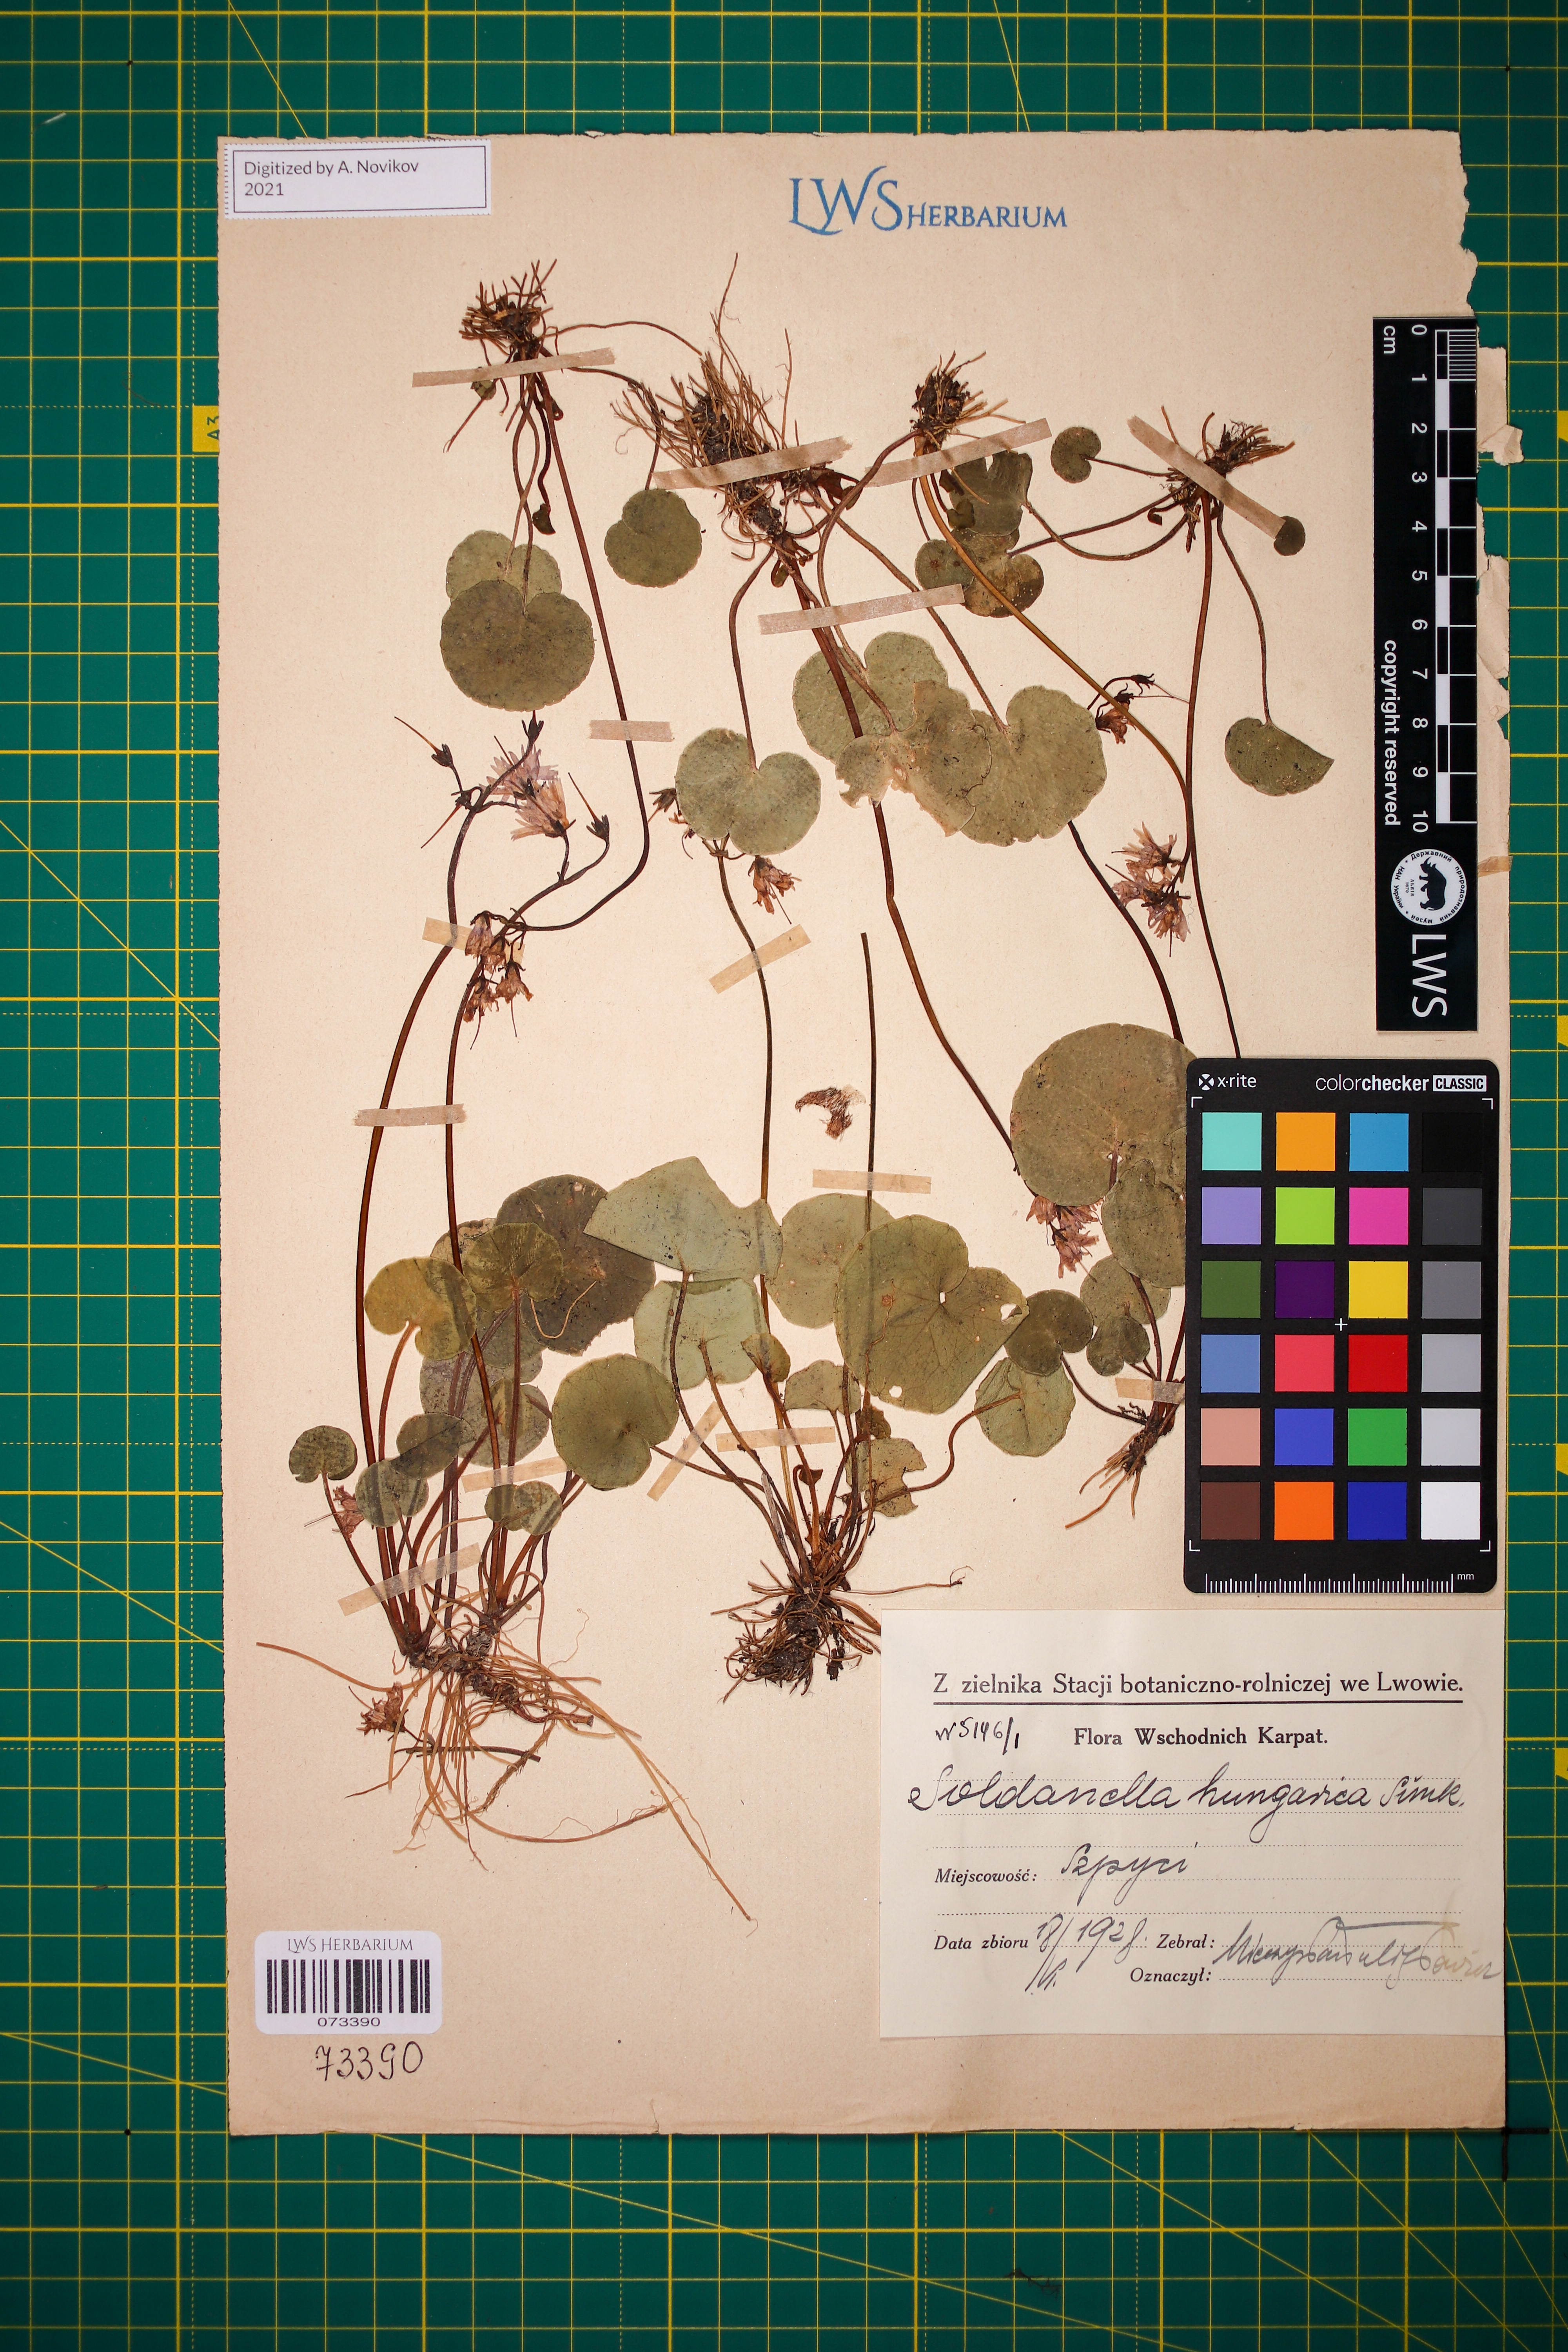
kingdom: Plantae
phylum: Tracheophyta
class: Magnoliopsida
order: Ericales
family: Primulaceae
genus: Soldanella
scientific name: Soldanella hungarica
